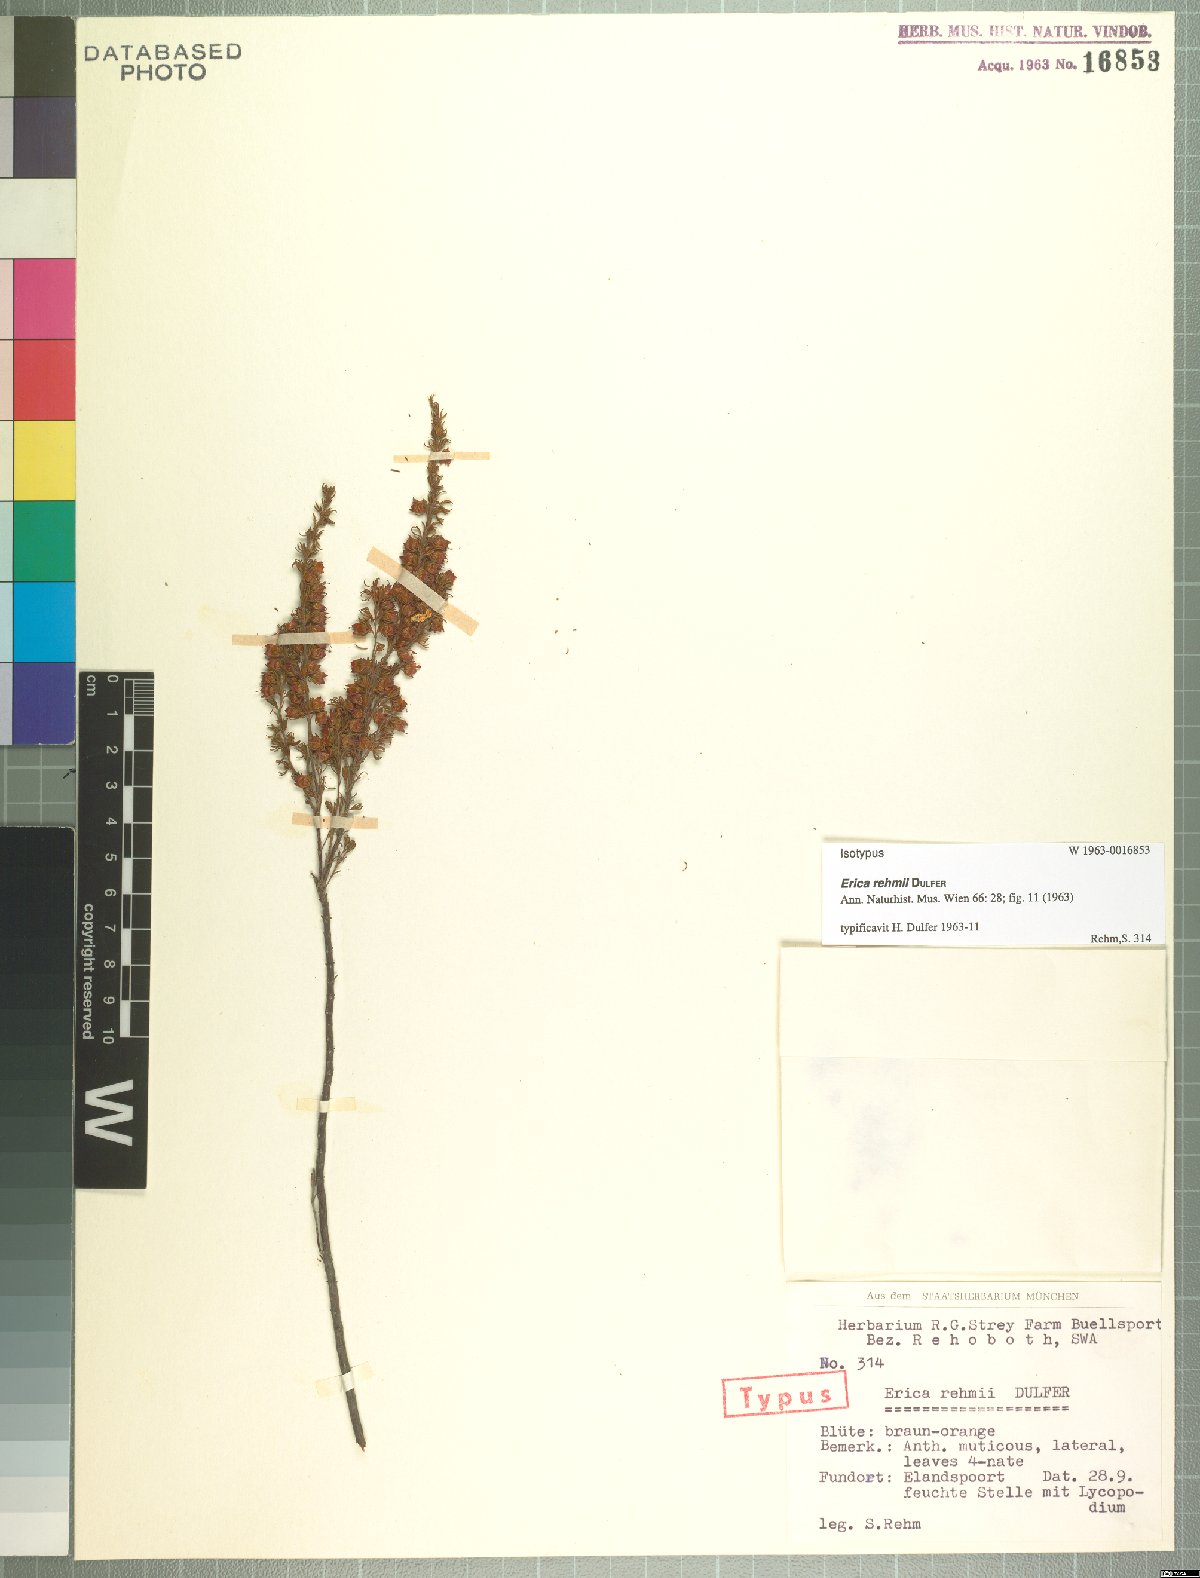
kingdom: Plantae
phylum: Tracheophyta
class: Magnoliopsida
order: Ericales
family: Ericaceae
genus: Erica
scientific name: Erica rehmii
